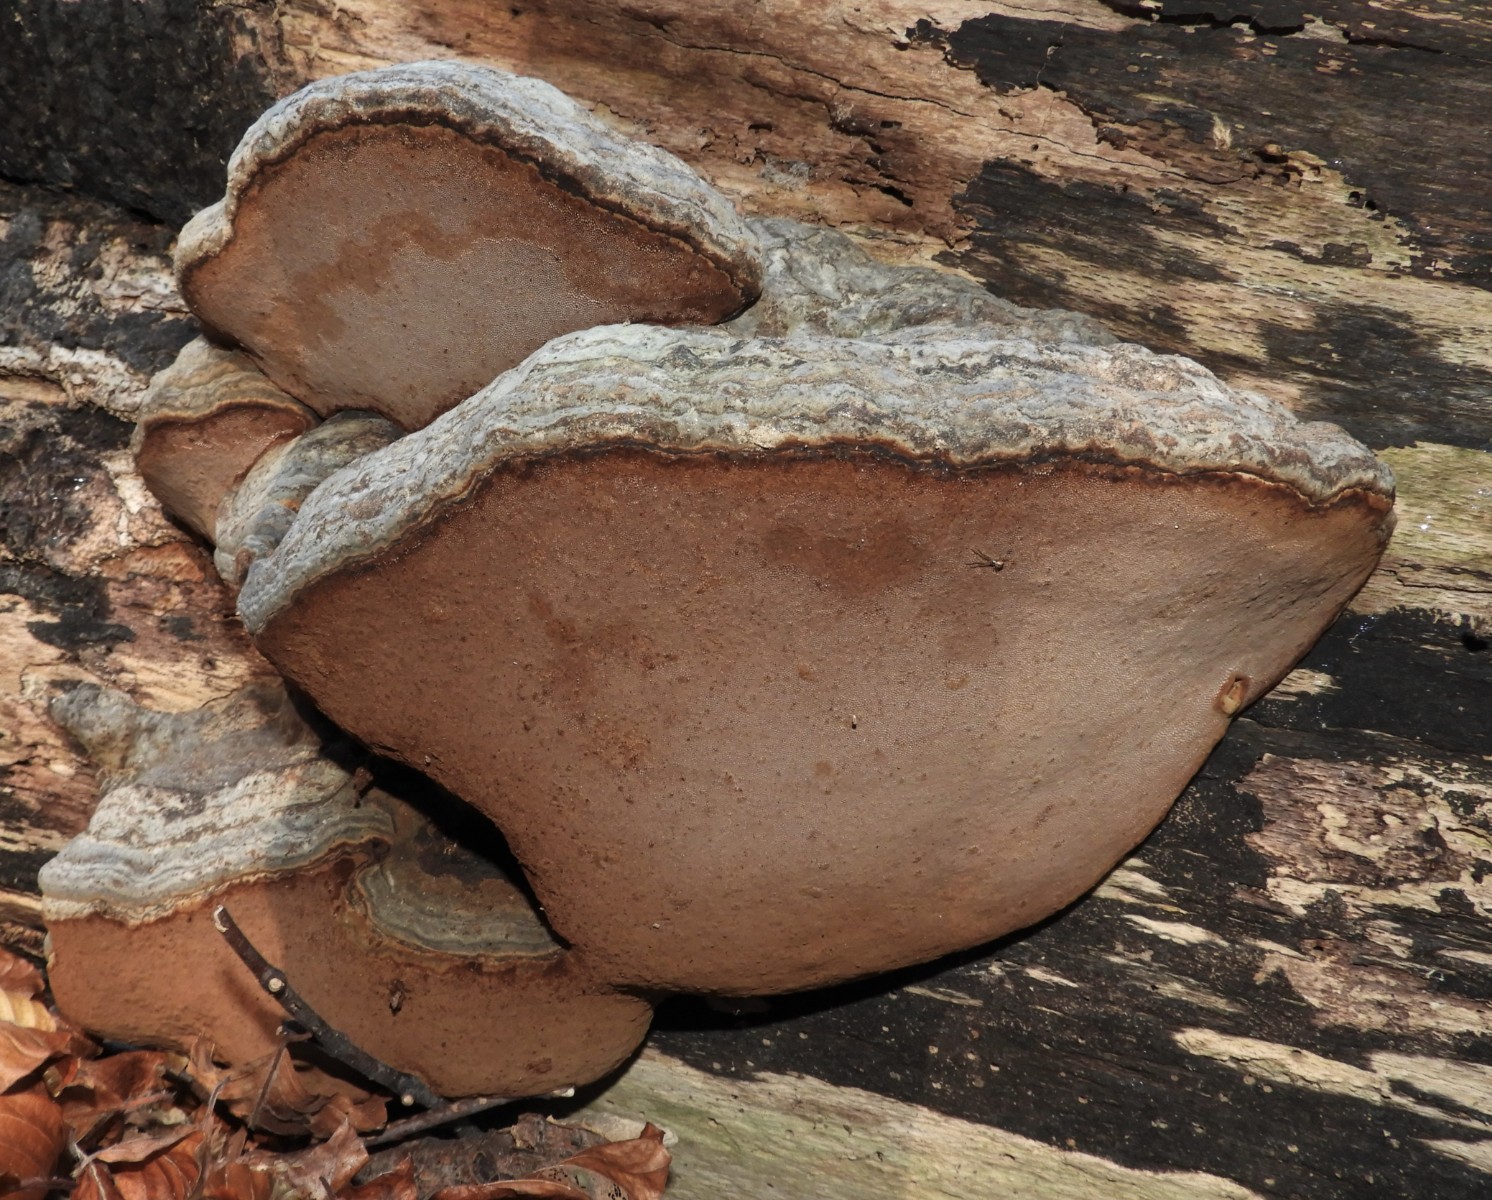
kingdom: Fungi
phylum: Basidiomycota
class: Agaricomycetes
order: Polyporales
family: Polyporaceae
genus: Fomes
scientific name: Fomes fomentarius
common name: tøndersvamp
